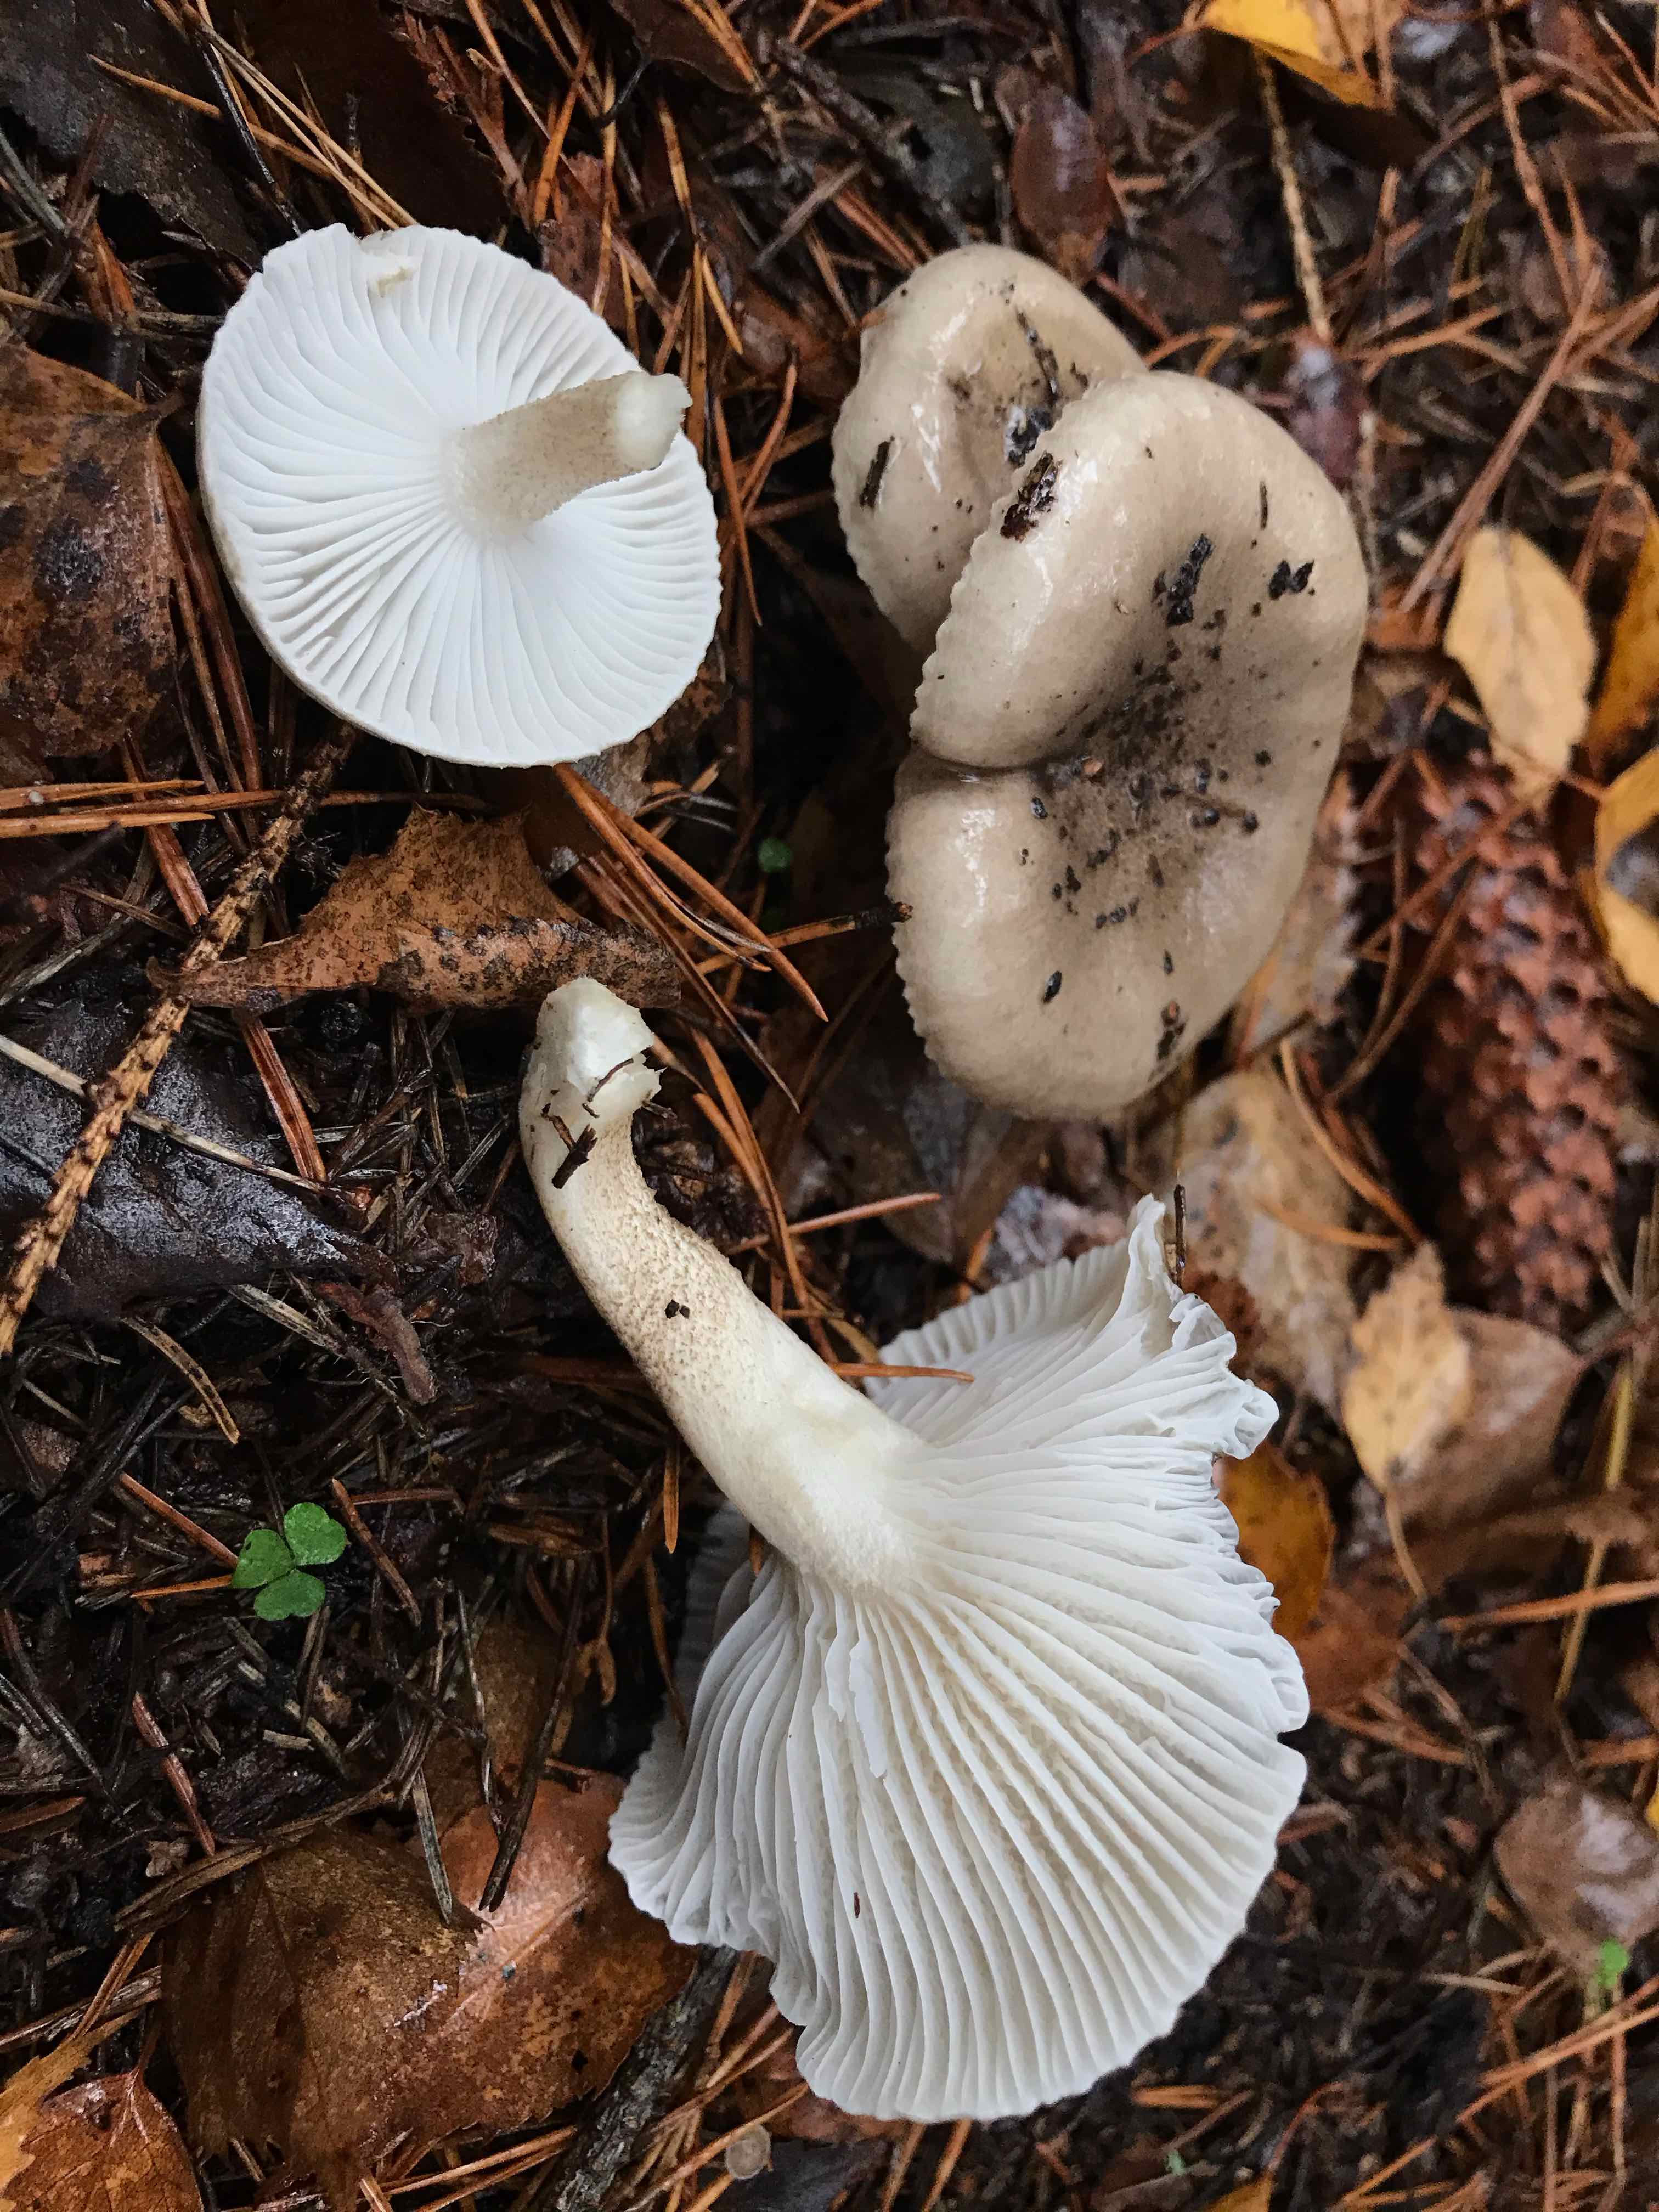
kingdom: Fungi
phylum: Basidiomycota
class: Agaricomycetes
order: Agaricales
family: Hygrophoraceae
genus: Hygrophorus
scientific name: Hygrophorus pustulatus
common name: mørkprikket sneglehat
